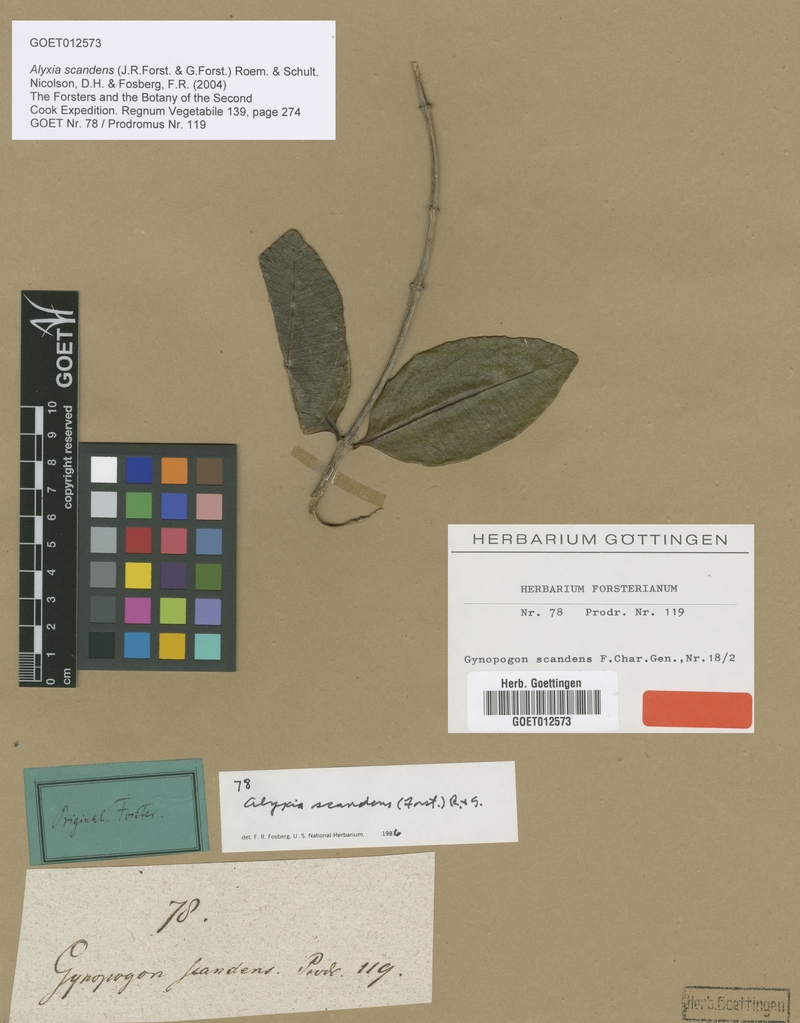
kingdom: Plantae
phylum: Tracheophyta
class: Magnoliopsida
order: Gentianales
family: Apocynaceae
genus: Alyxia
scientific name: Alyxia stellata
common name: Maile
